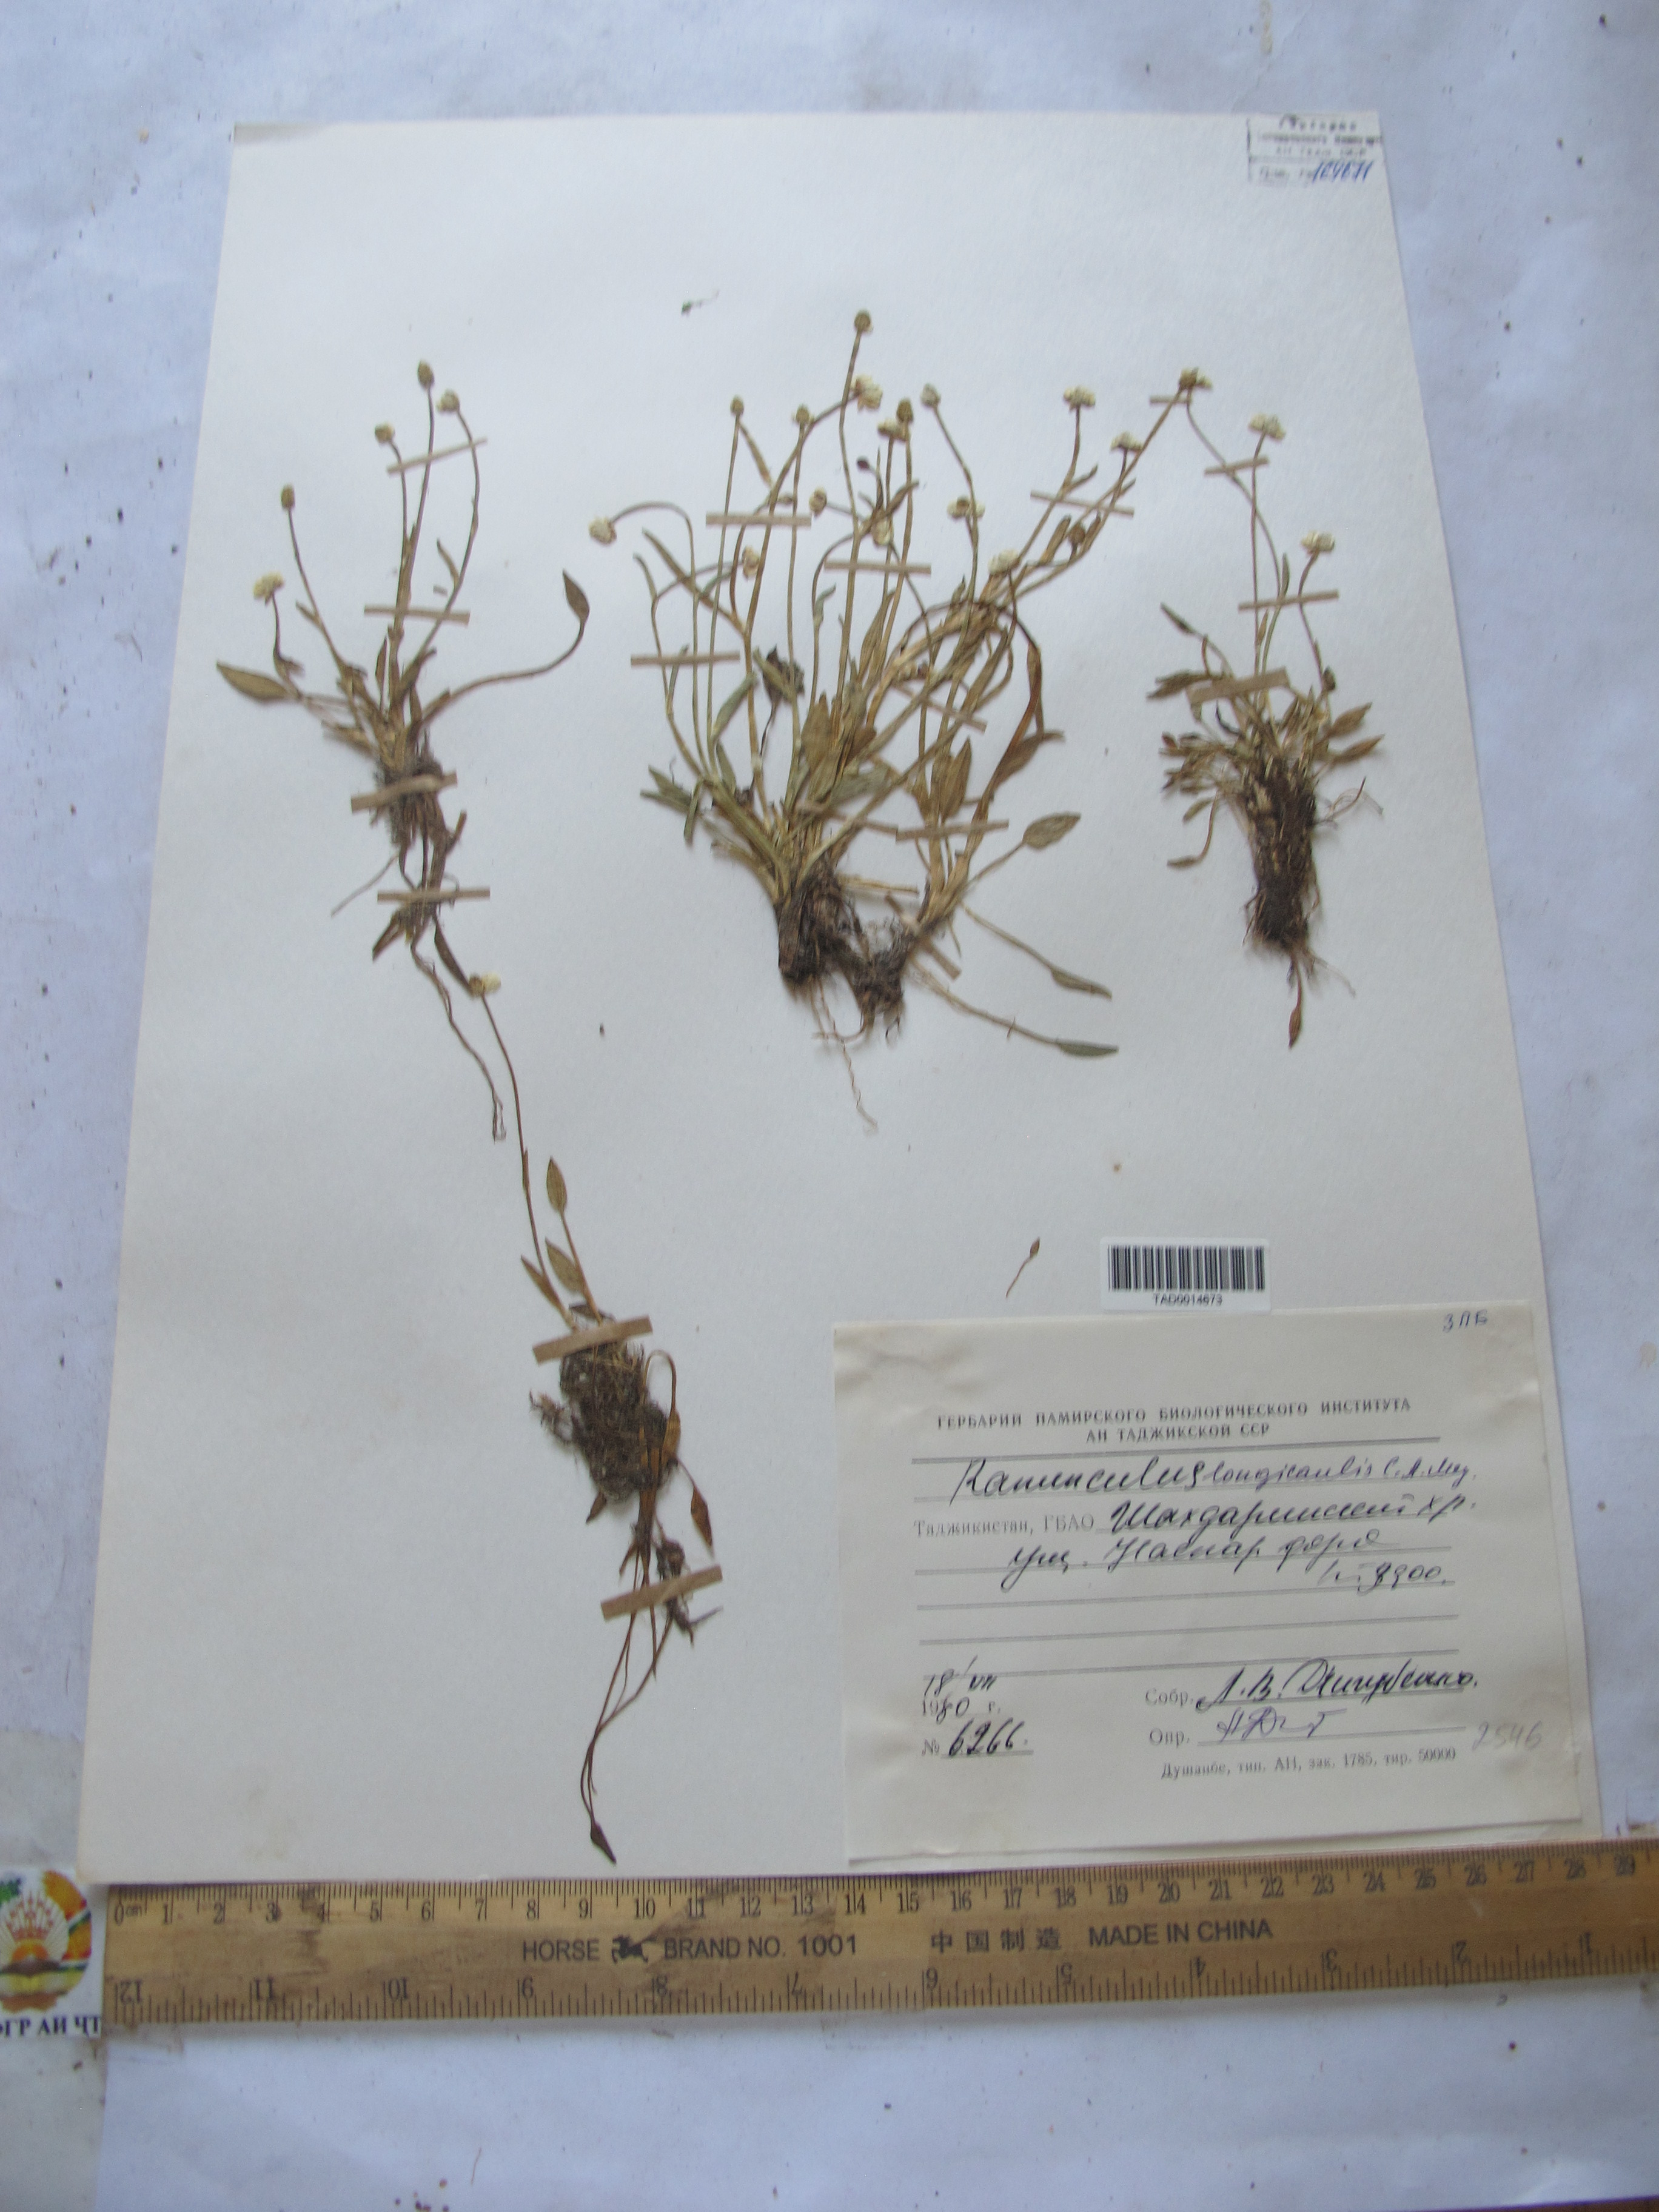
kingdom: Plantae
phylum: Tracheophyta
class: Magnoliopsida
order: Ranunculales
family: Ranunculaceae
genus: Ranunculus
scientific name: Ranunculus longicaulis
